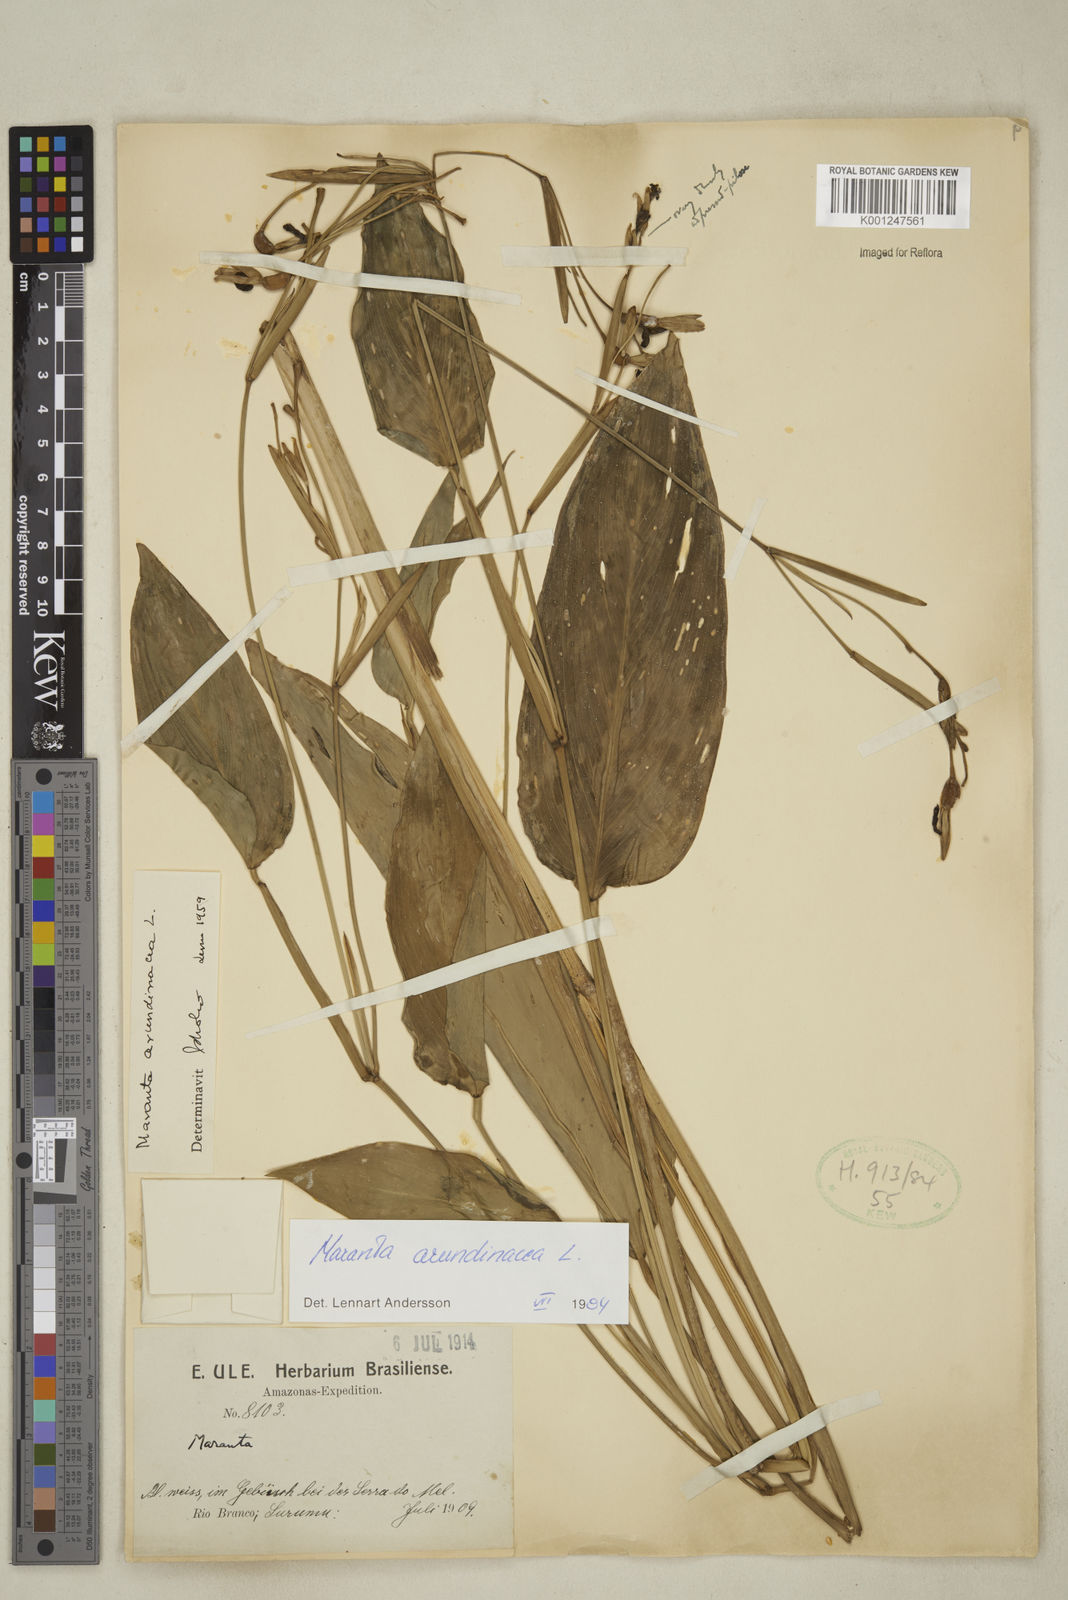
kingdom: Plantae
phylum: Tracheophyta
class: Liliopsida
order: Zingiberales
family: Marantaceae
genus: Maranta
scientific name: Maranta arundinacea
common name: Arrowroot
